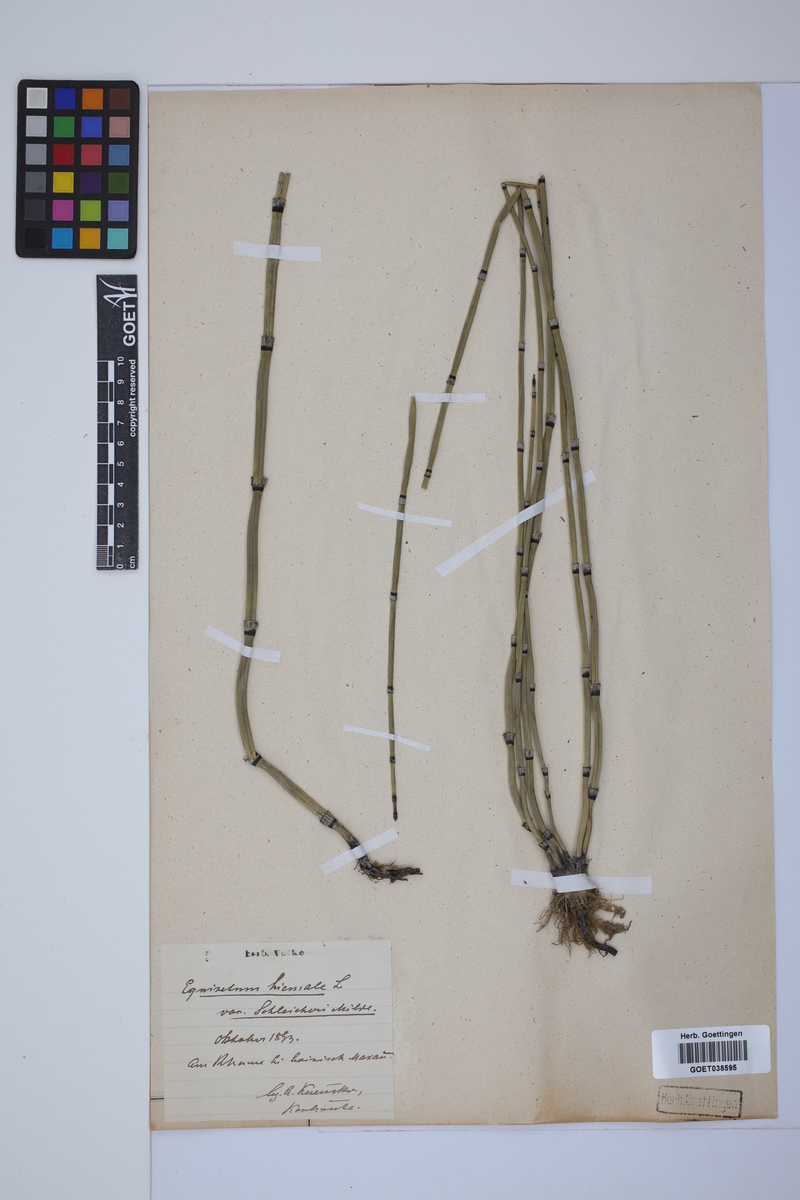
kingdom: Plantae
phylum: Tracheophyta
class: Polypodiopsida
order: Equisetales
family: Equisetaceae
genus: Equisetum
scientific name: Equisetum hyemale
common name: Rough horsetail
